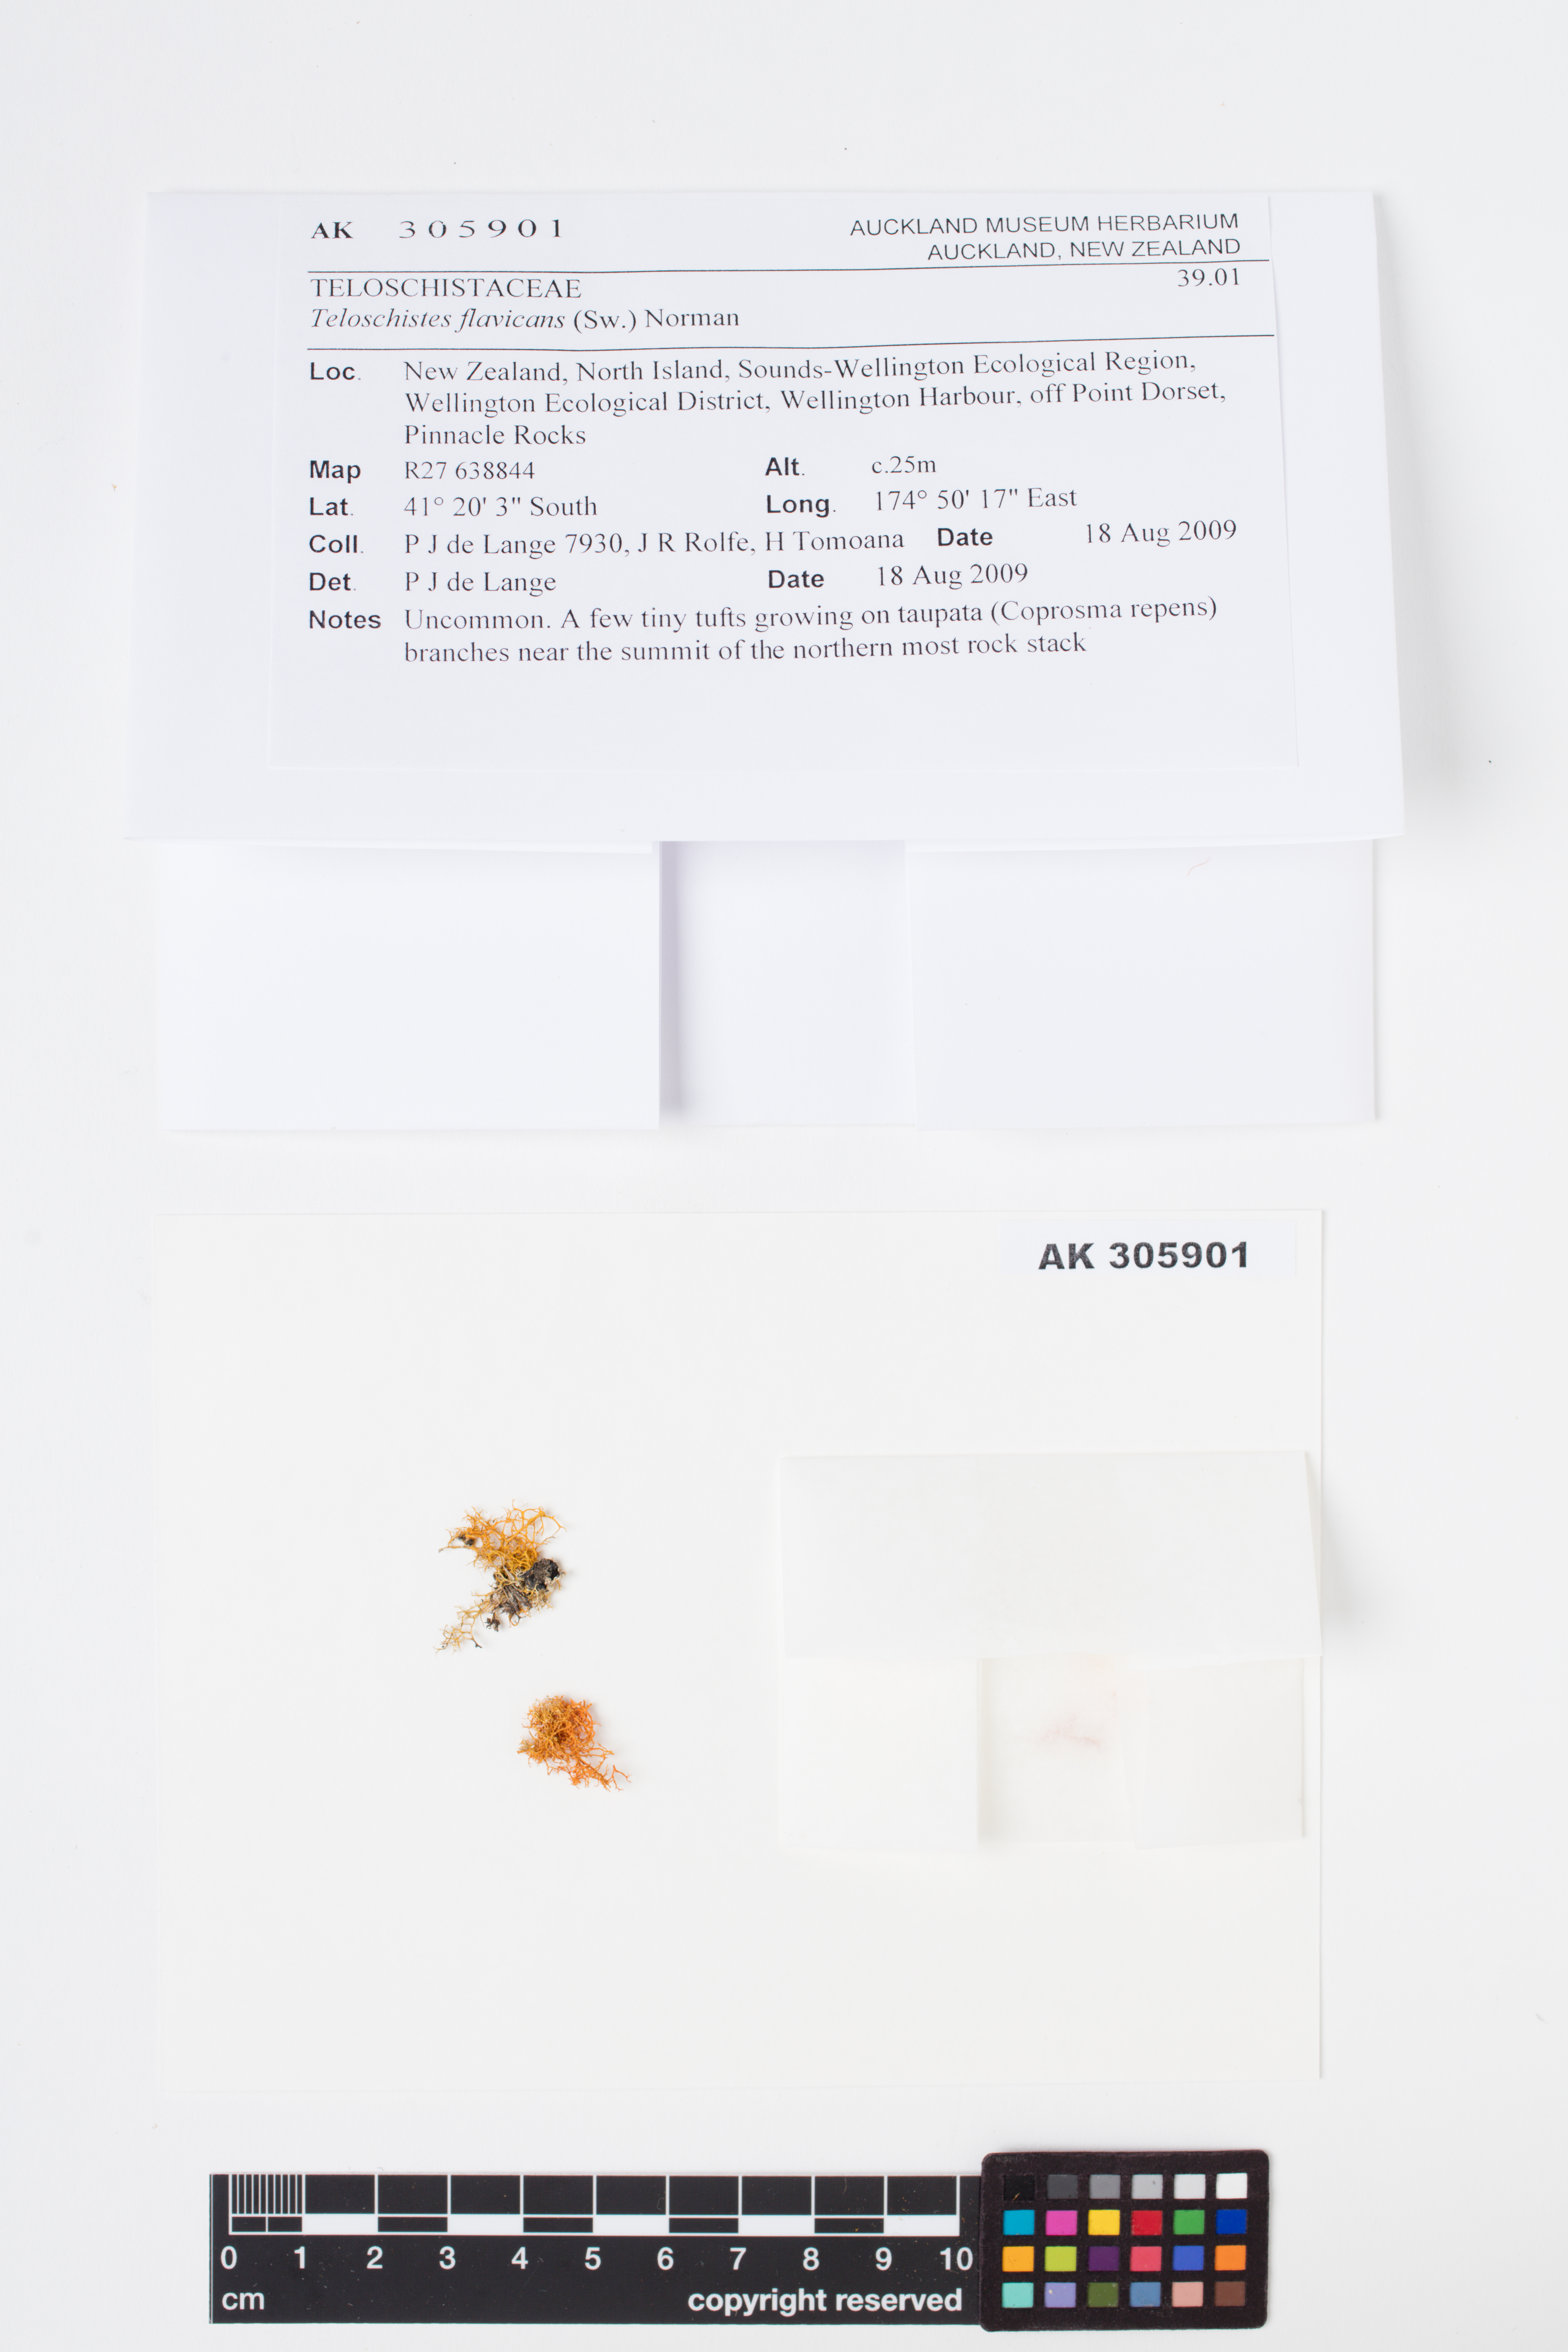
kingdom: Fungi
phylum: Ascomycota
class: Lecanoromycetes
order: Teloschistales
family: Teloschistaceae
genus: Teloschistes
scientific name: Teloschistes flavicans
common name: Golden hair-lichen
